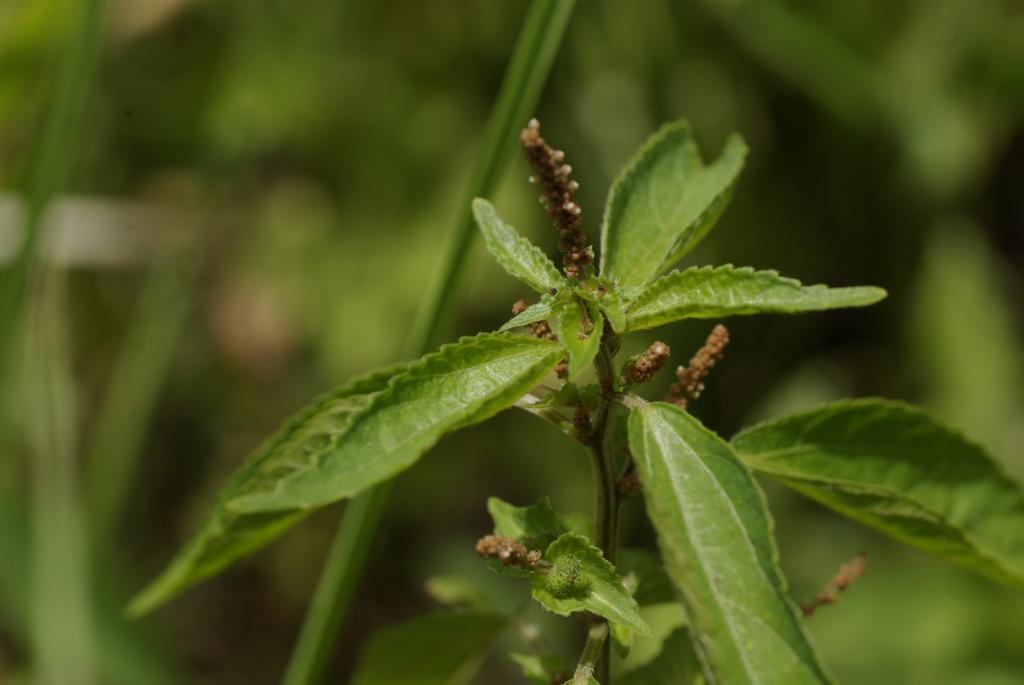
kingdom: Plantae
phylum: Tracheophyta
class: Magnoliopsida
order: Malpighiales
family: Euphorbiaceae
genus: Acalypha
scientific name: Acalypha australis
